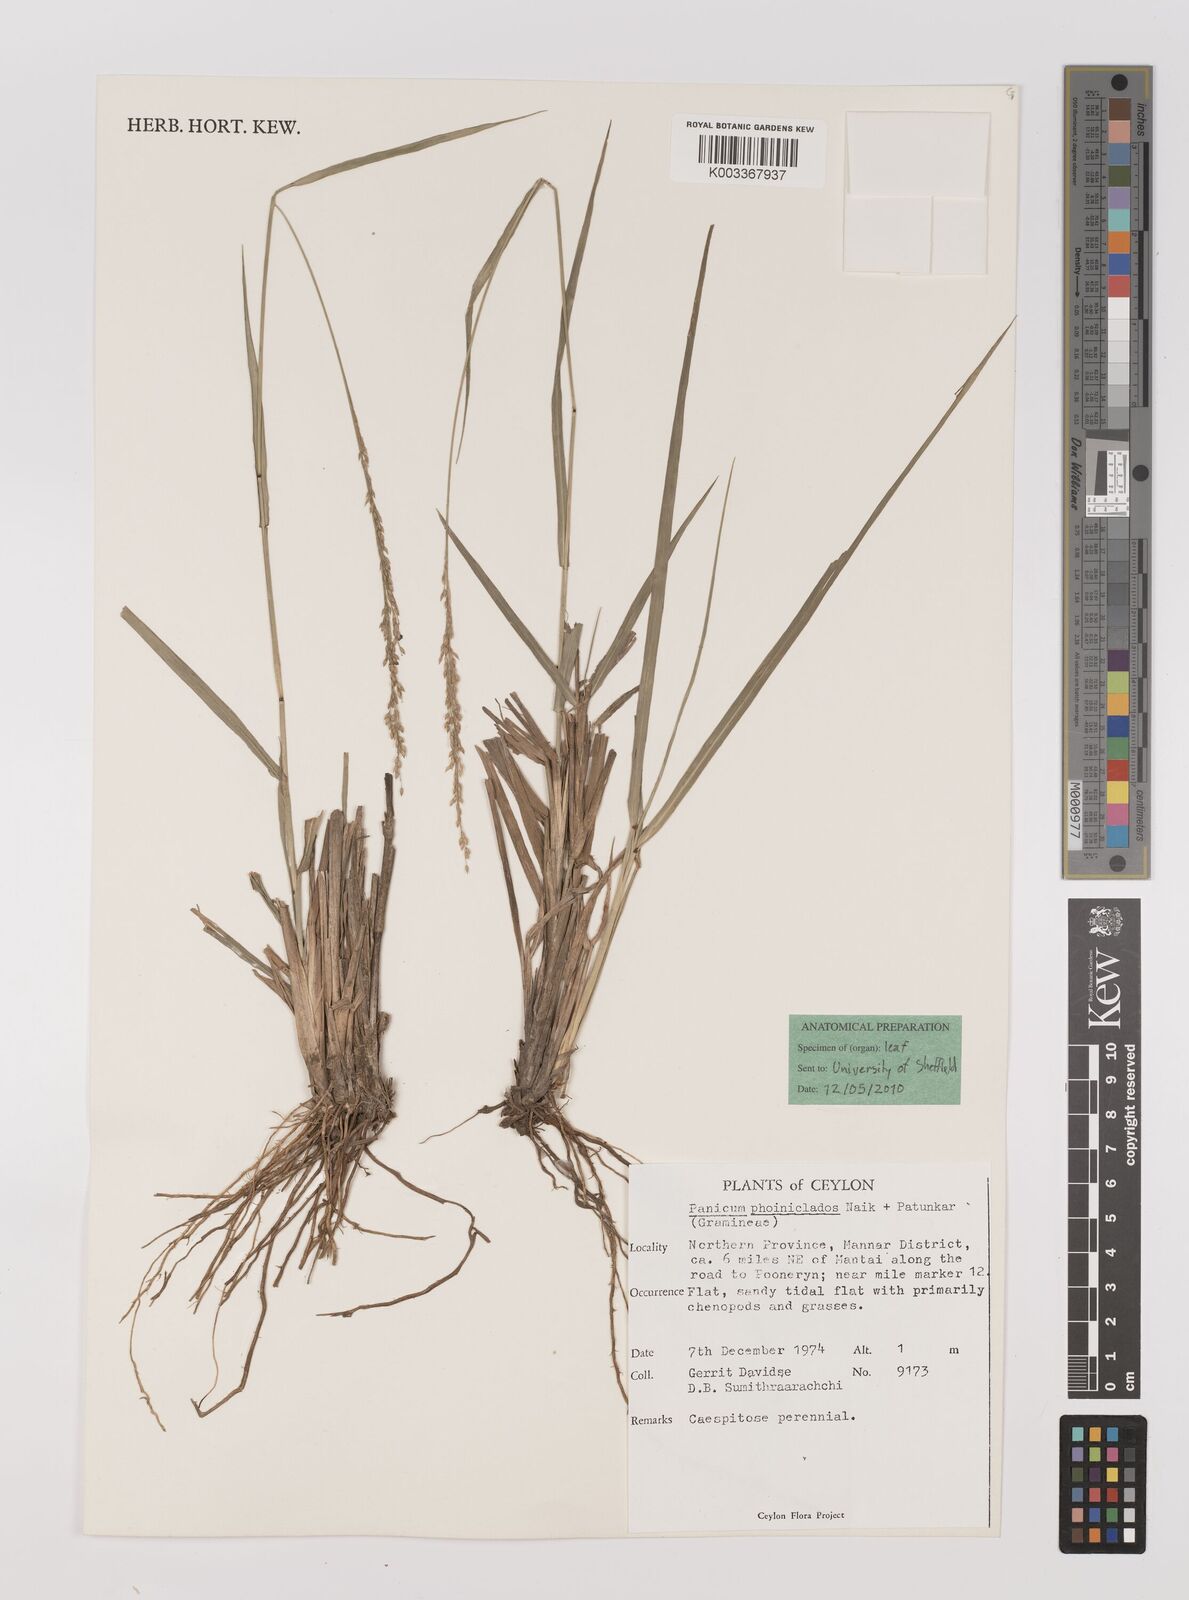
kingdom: Plantae
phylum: Tracheophyta
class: Liliopsida
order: Poales
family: Poaceae
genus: Panicum
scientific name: Panicum phoiniclados
